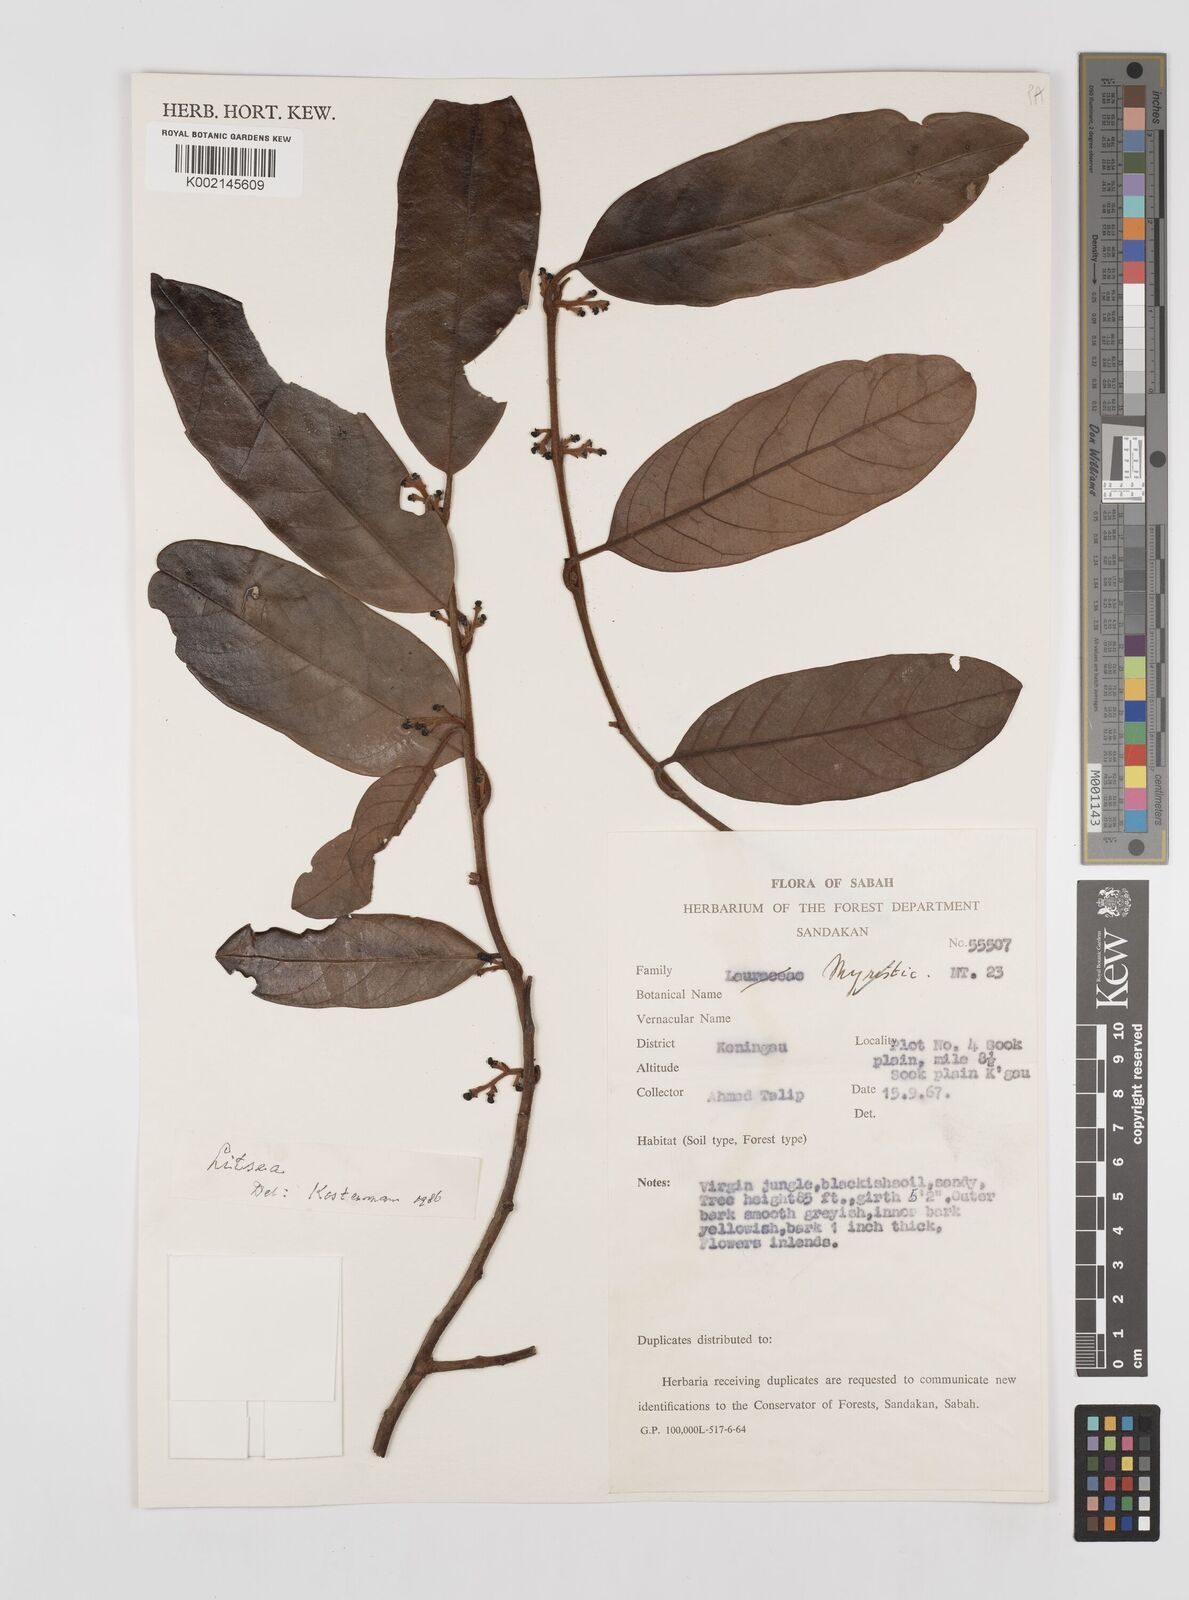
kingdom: Plantae
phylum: Tracheophyta
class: Magnoliopsida
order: Laurales
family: Lauraceae
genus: Litsea
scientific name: Litsea
